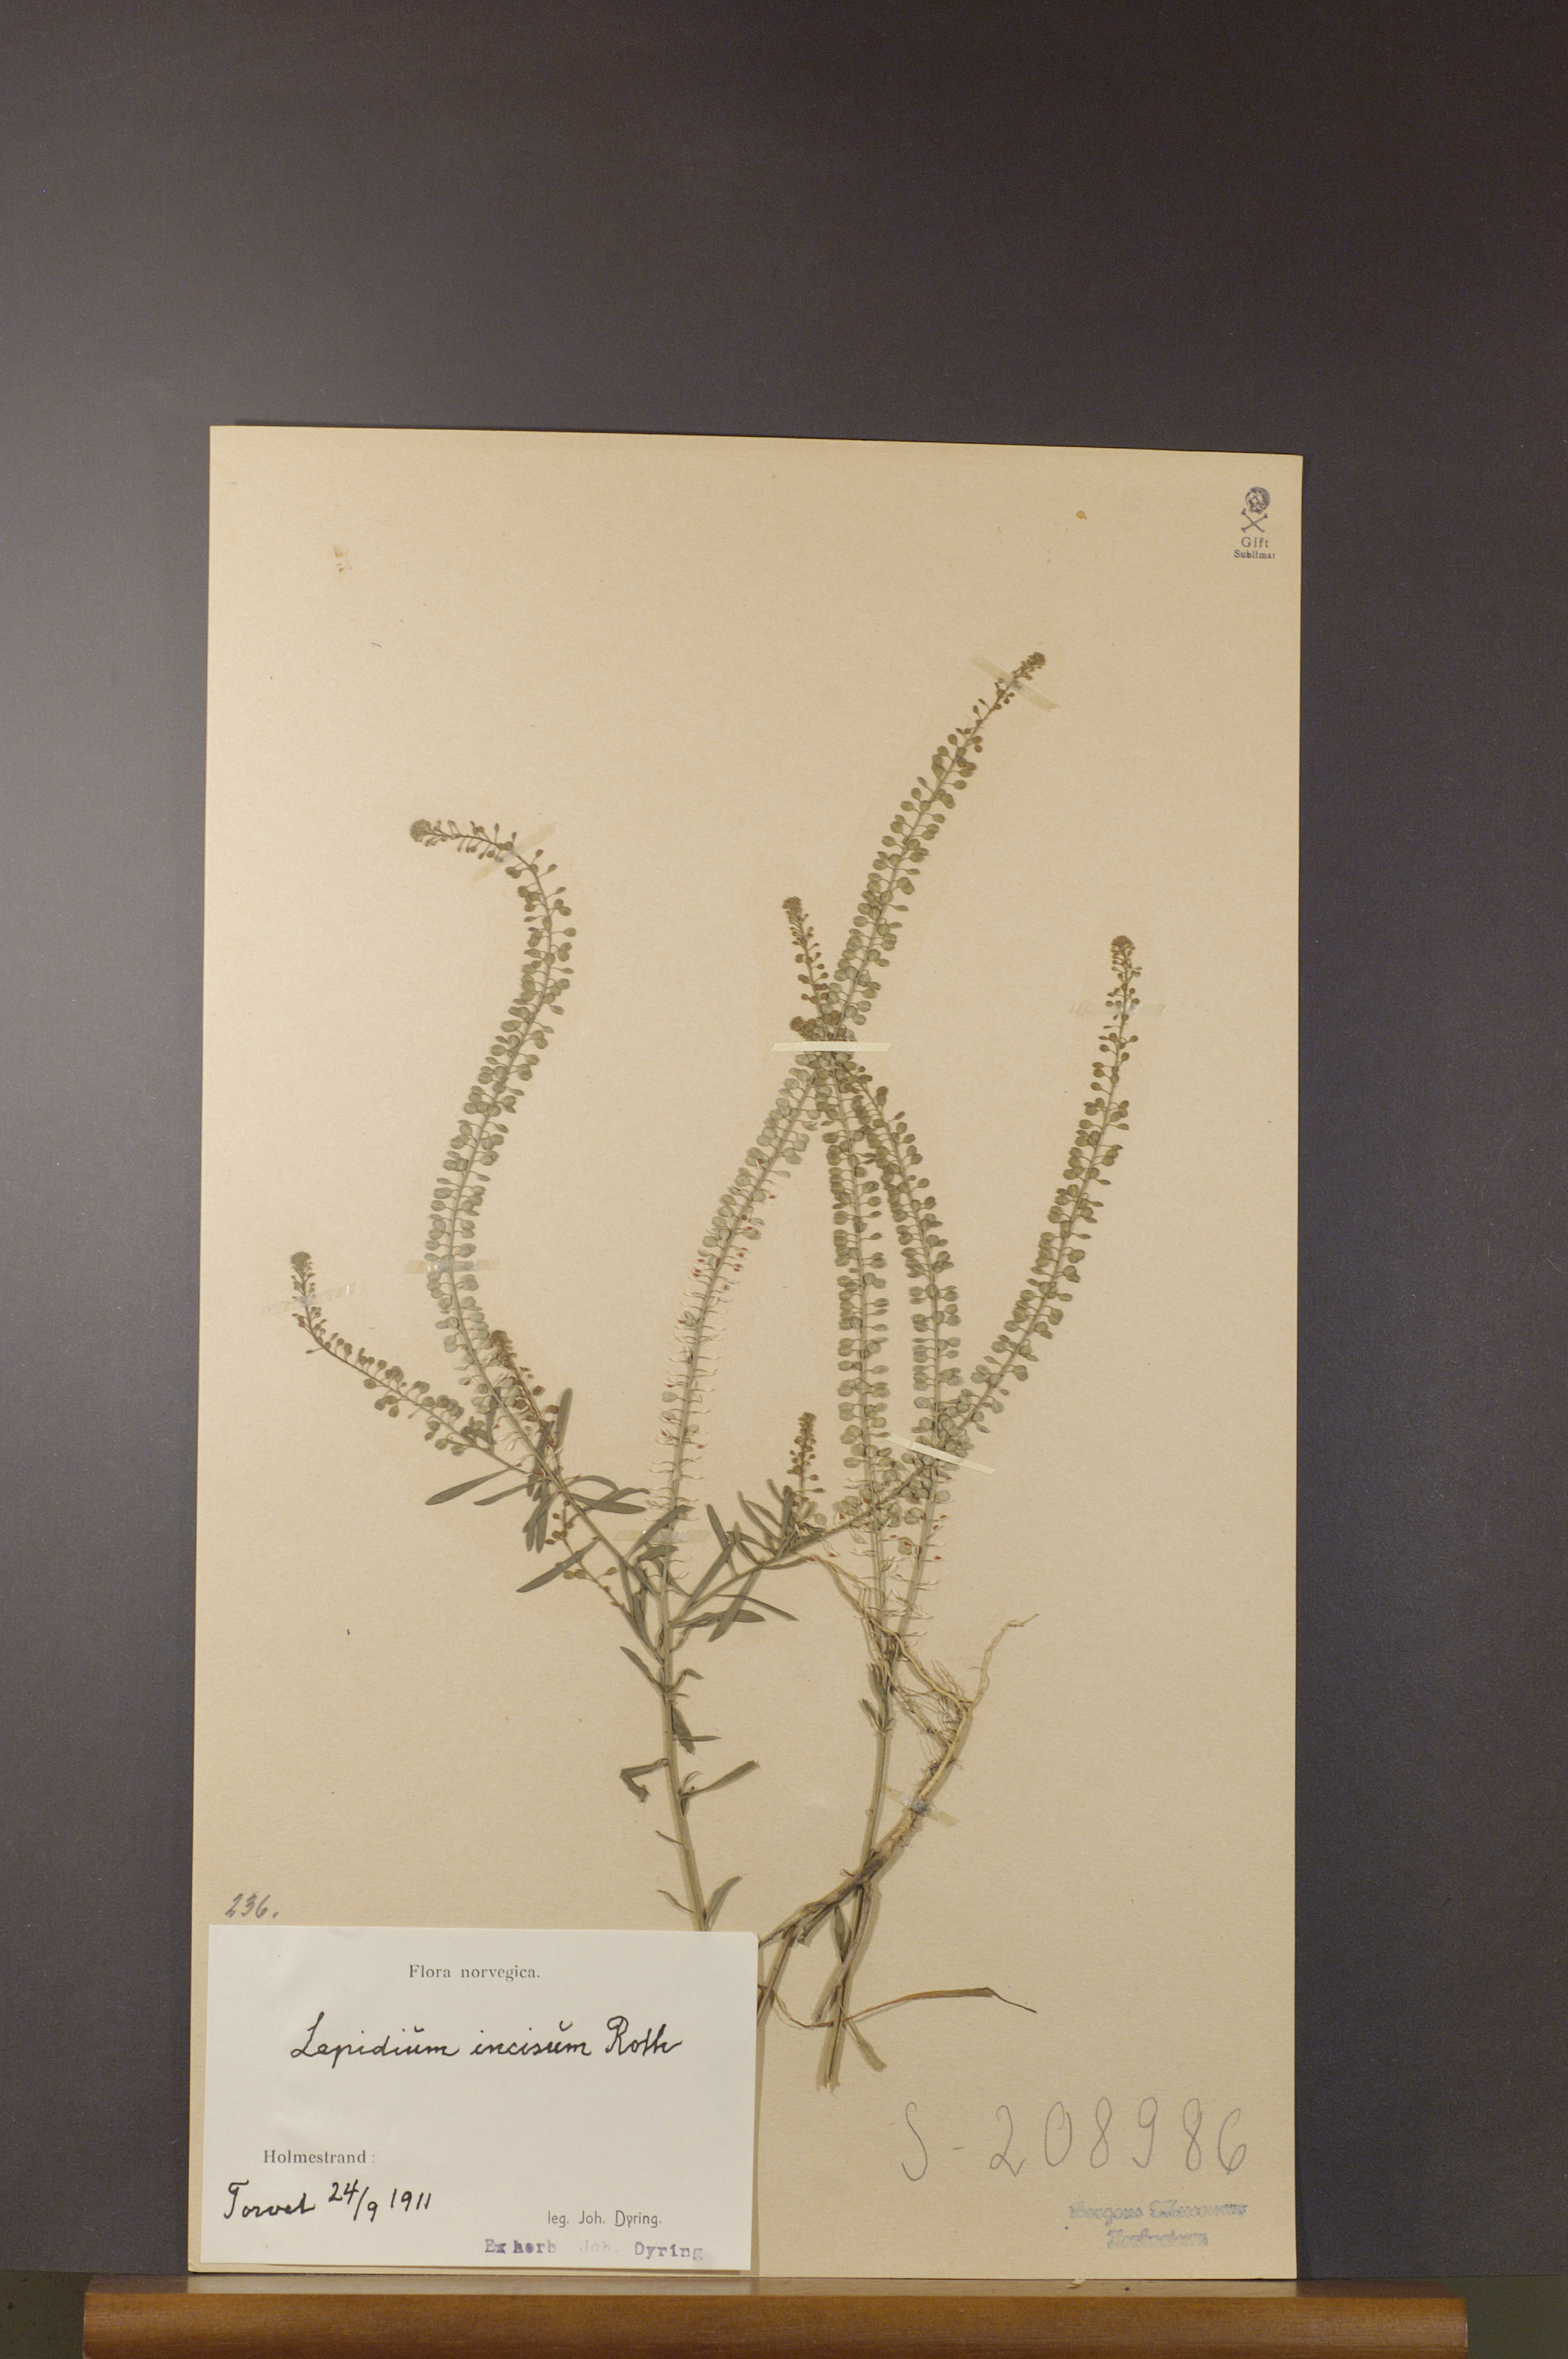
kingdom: Plantae
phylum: Tracheophyta
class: Magnoliopsida
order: Brassicales
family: Brassicaceae
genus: Lepidium
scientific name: Lepidium densiflorum
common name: Miner's pepperwort
